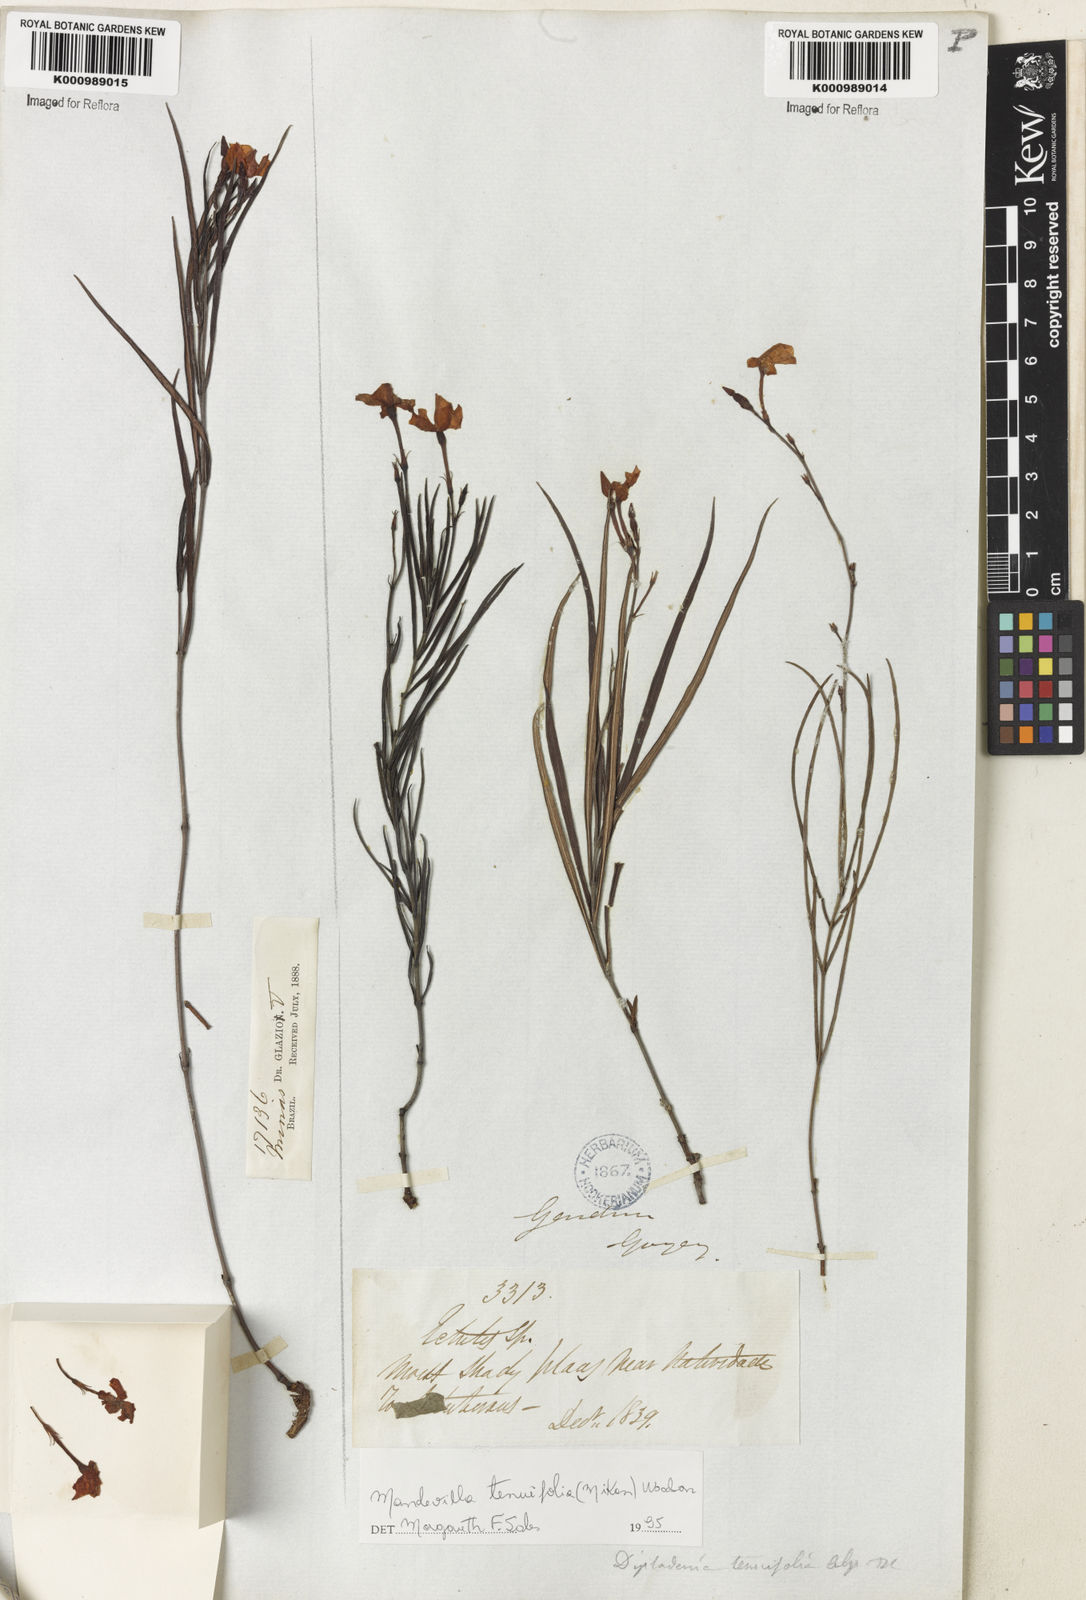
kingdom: Plantae
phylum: Tracheophyta
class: Magnoliopsida
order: Gentianales
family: Apocynaceae
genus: Mandevilla
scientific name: Mandevilla tenuifolia
